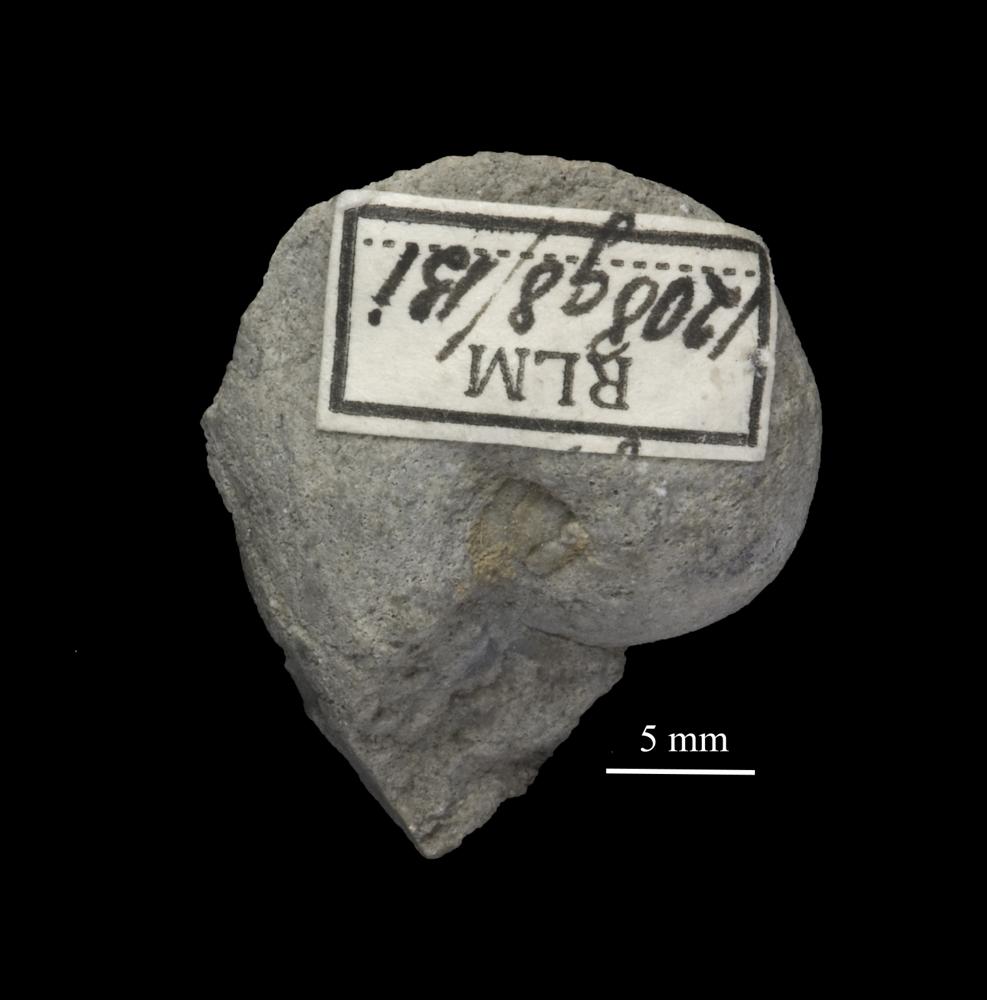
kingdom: Animalia
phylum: Mollusca
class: Gastropoda
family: Bellerophontidae
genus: Cymbularia
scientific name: Cymbularia angusta
